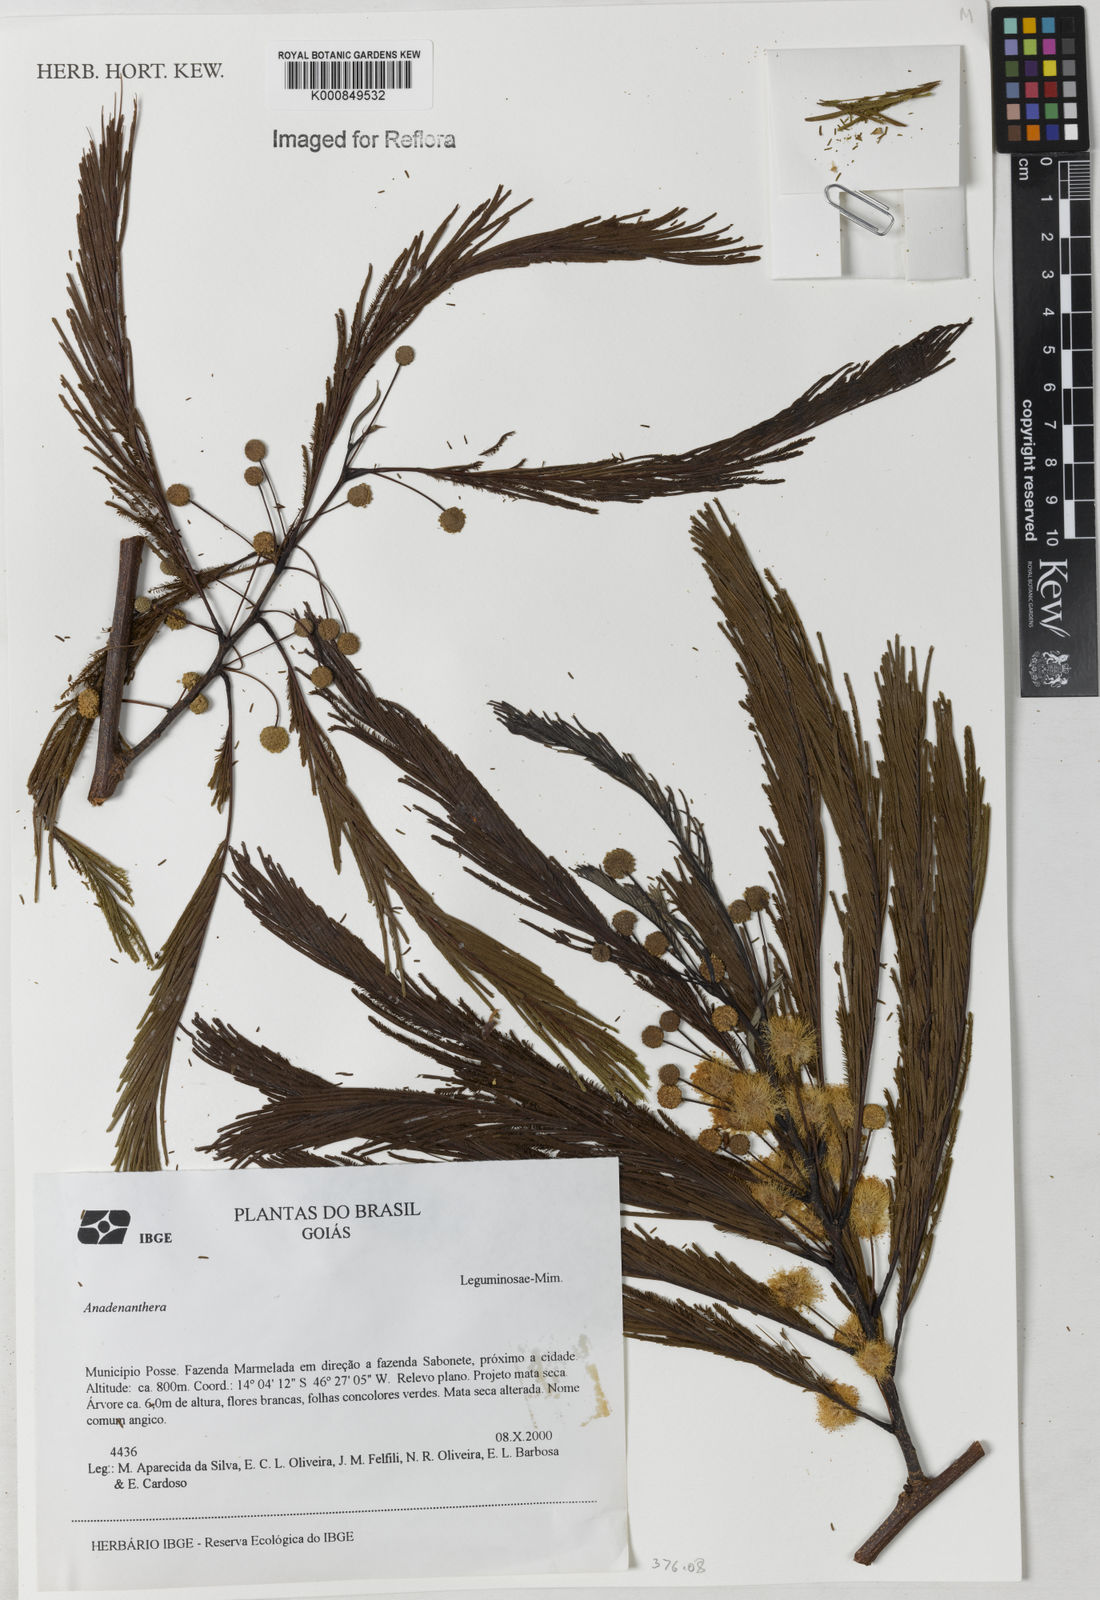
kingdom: Plantae
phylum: Tracheophyta
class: Magnoliopsida
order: Fabales
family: Fabaceae
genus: Anadenanthera
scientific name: Anadenanthera
